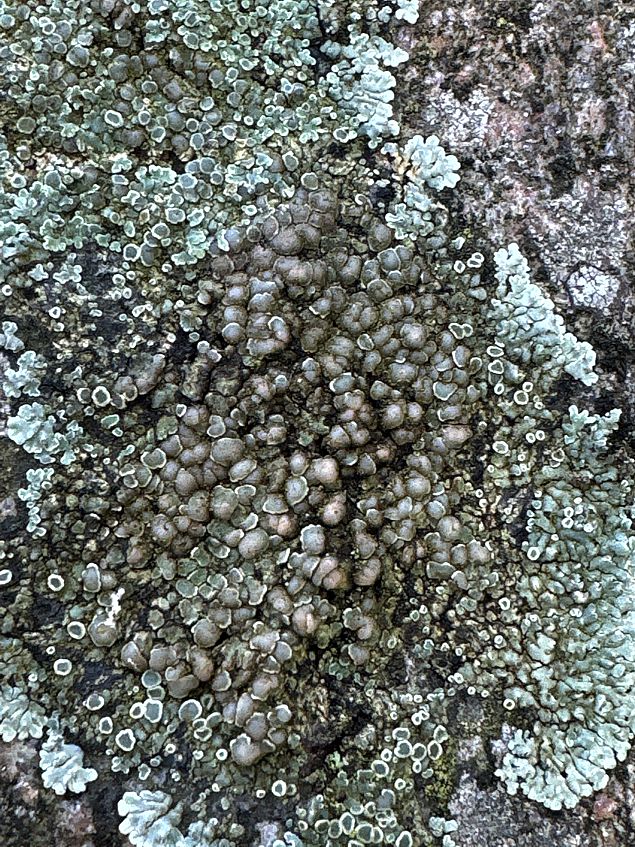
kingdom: Fungi
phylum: Ascomycota
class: Lecanoromycetes
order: Lecanorales
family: Lecanoraceae
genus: Protoparmeliopsis
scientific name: Protoparmeliopsis muralis
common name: randfliget kantskivelav
